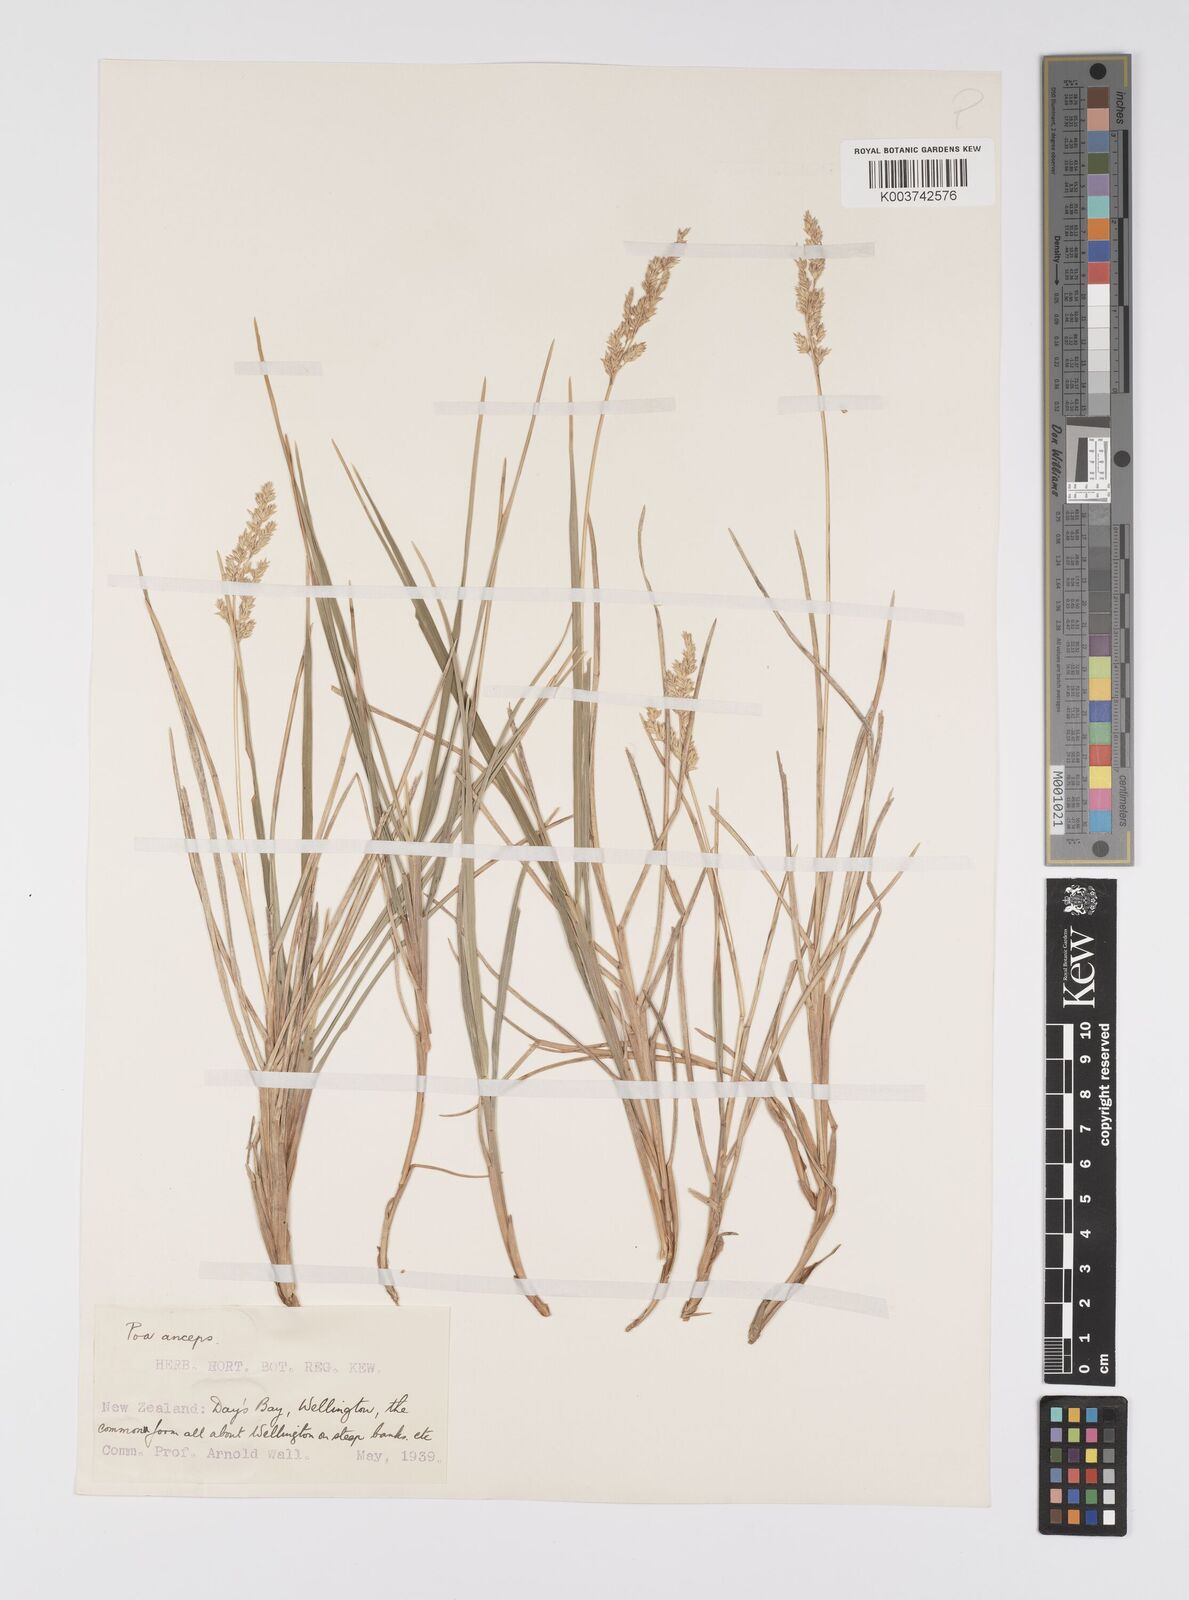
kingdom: Plantae
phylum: Tracheophyta
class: Liliopsida
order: Poales
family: Poaceae
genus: Poa
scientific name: Poa anceps
